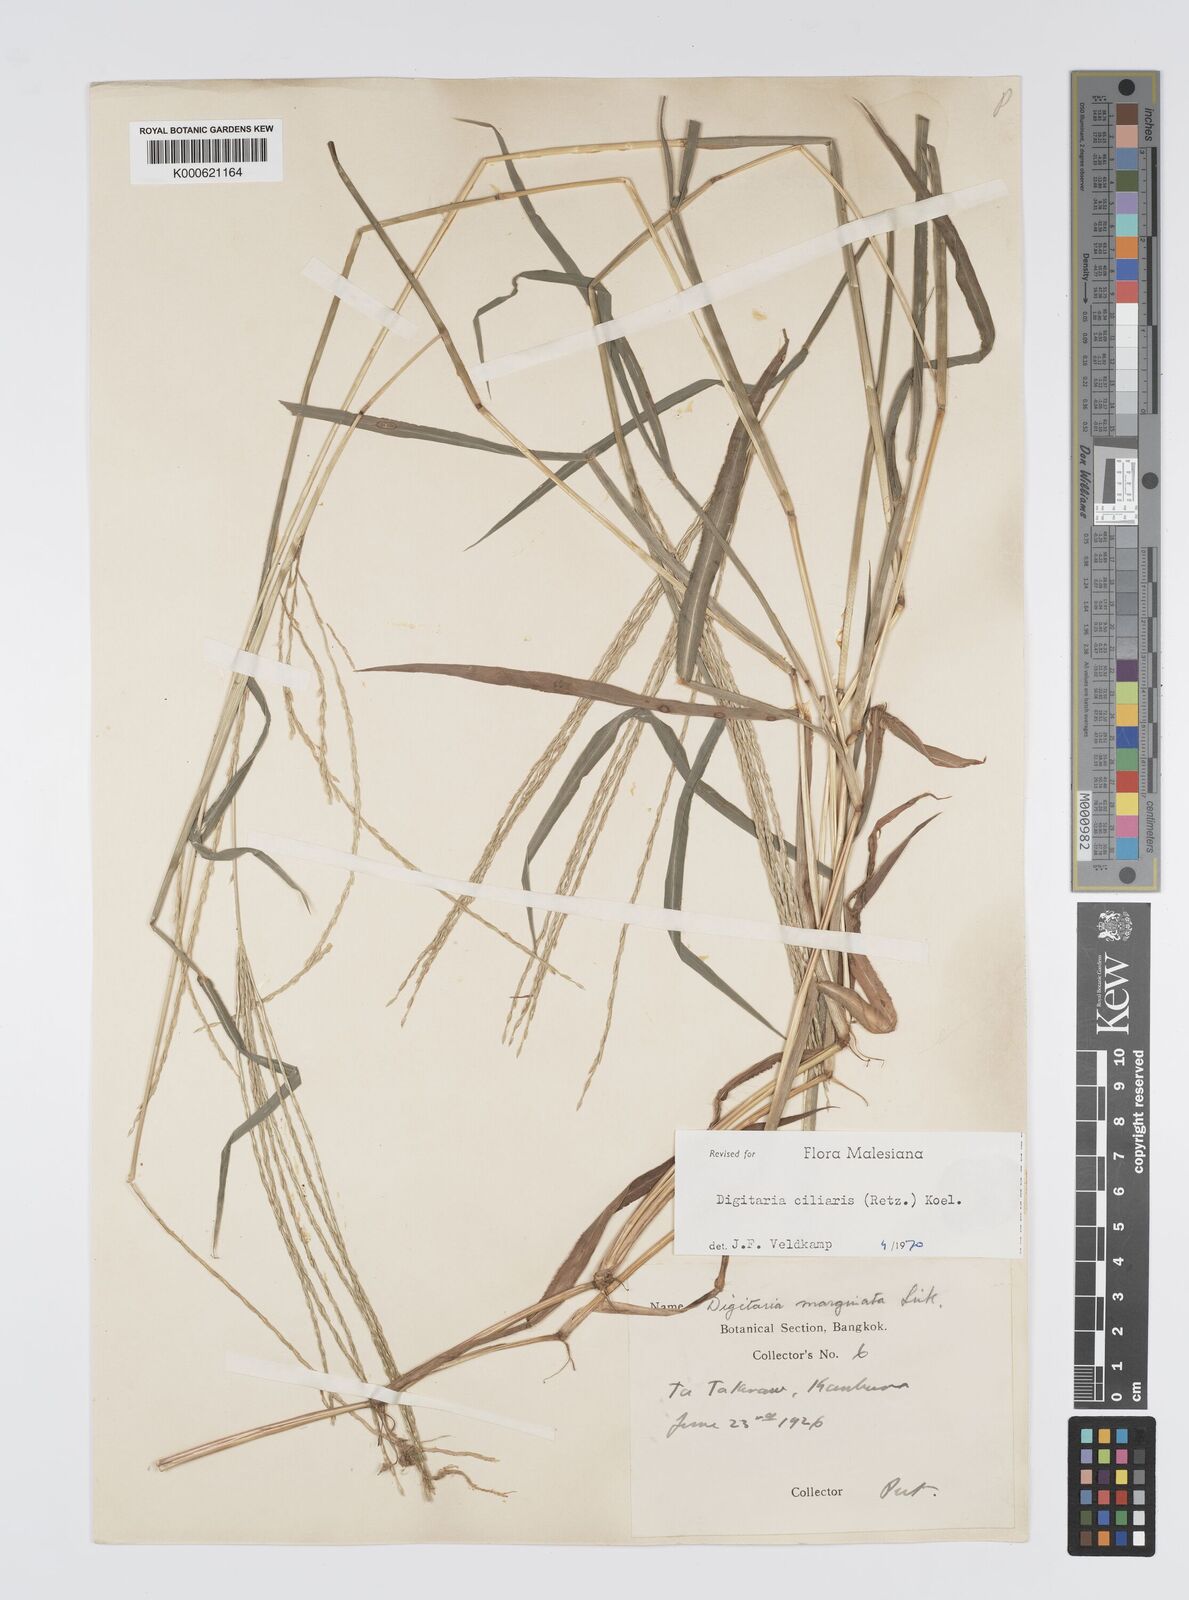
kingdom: Plantae
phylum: Tracheophyta
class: Liliopsida
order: Poales
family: Poaceae
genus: Digitaria
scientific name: Digitaria ciliaris
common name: Tropical finger-grass
